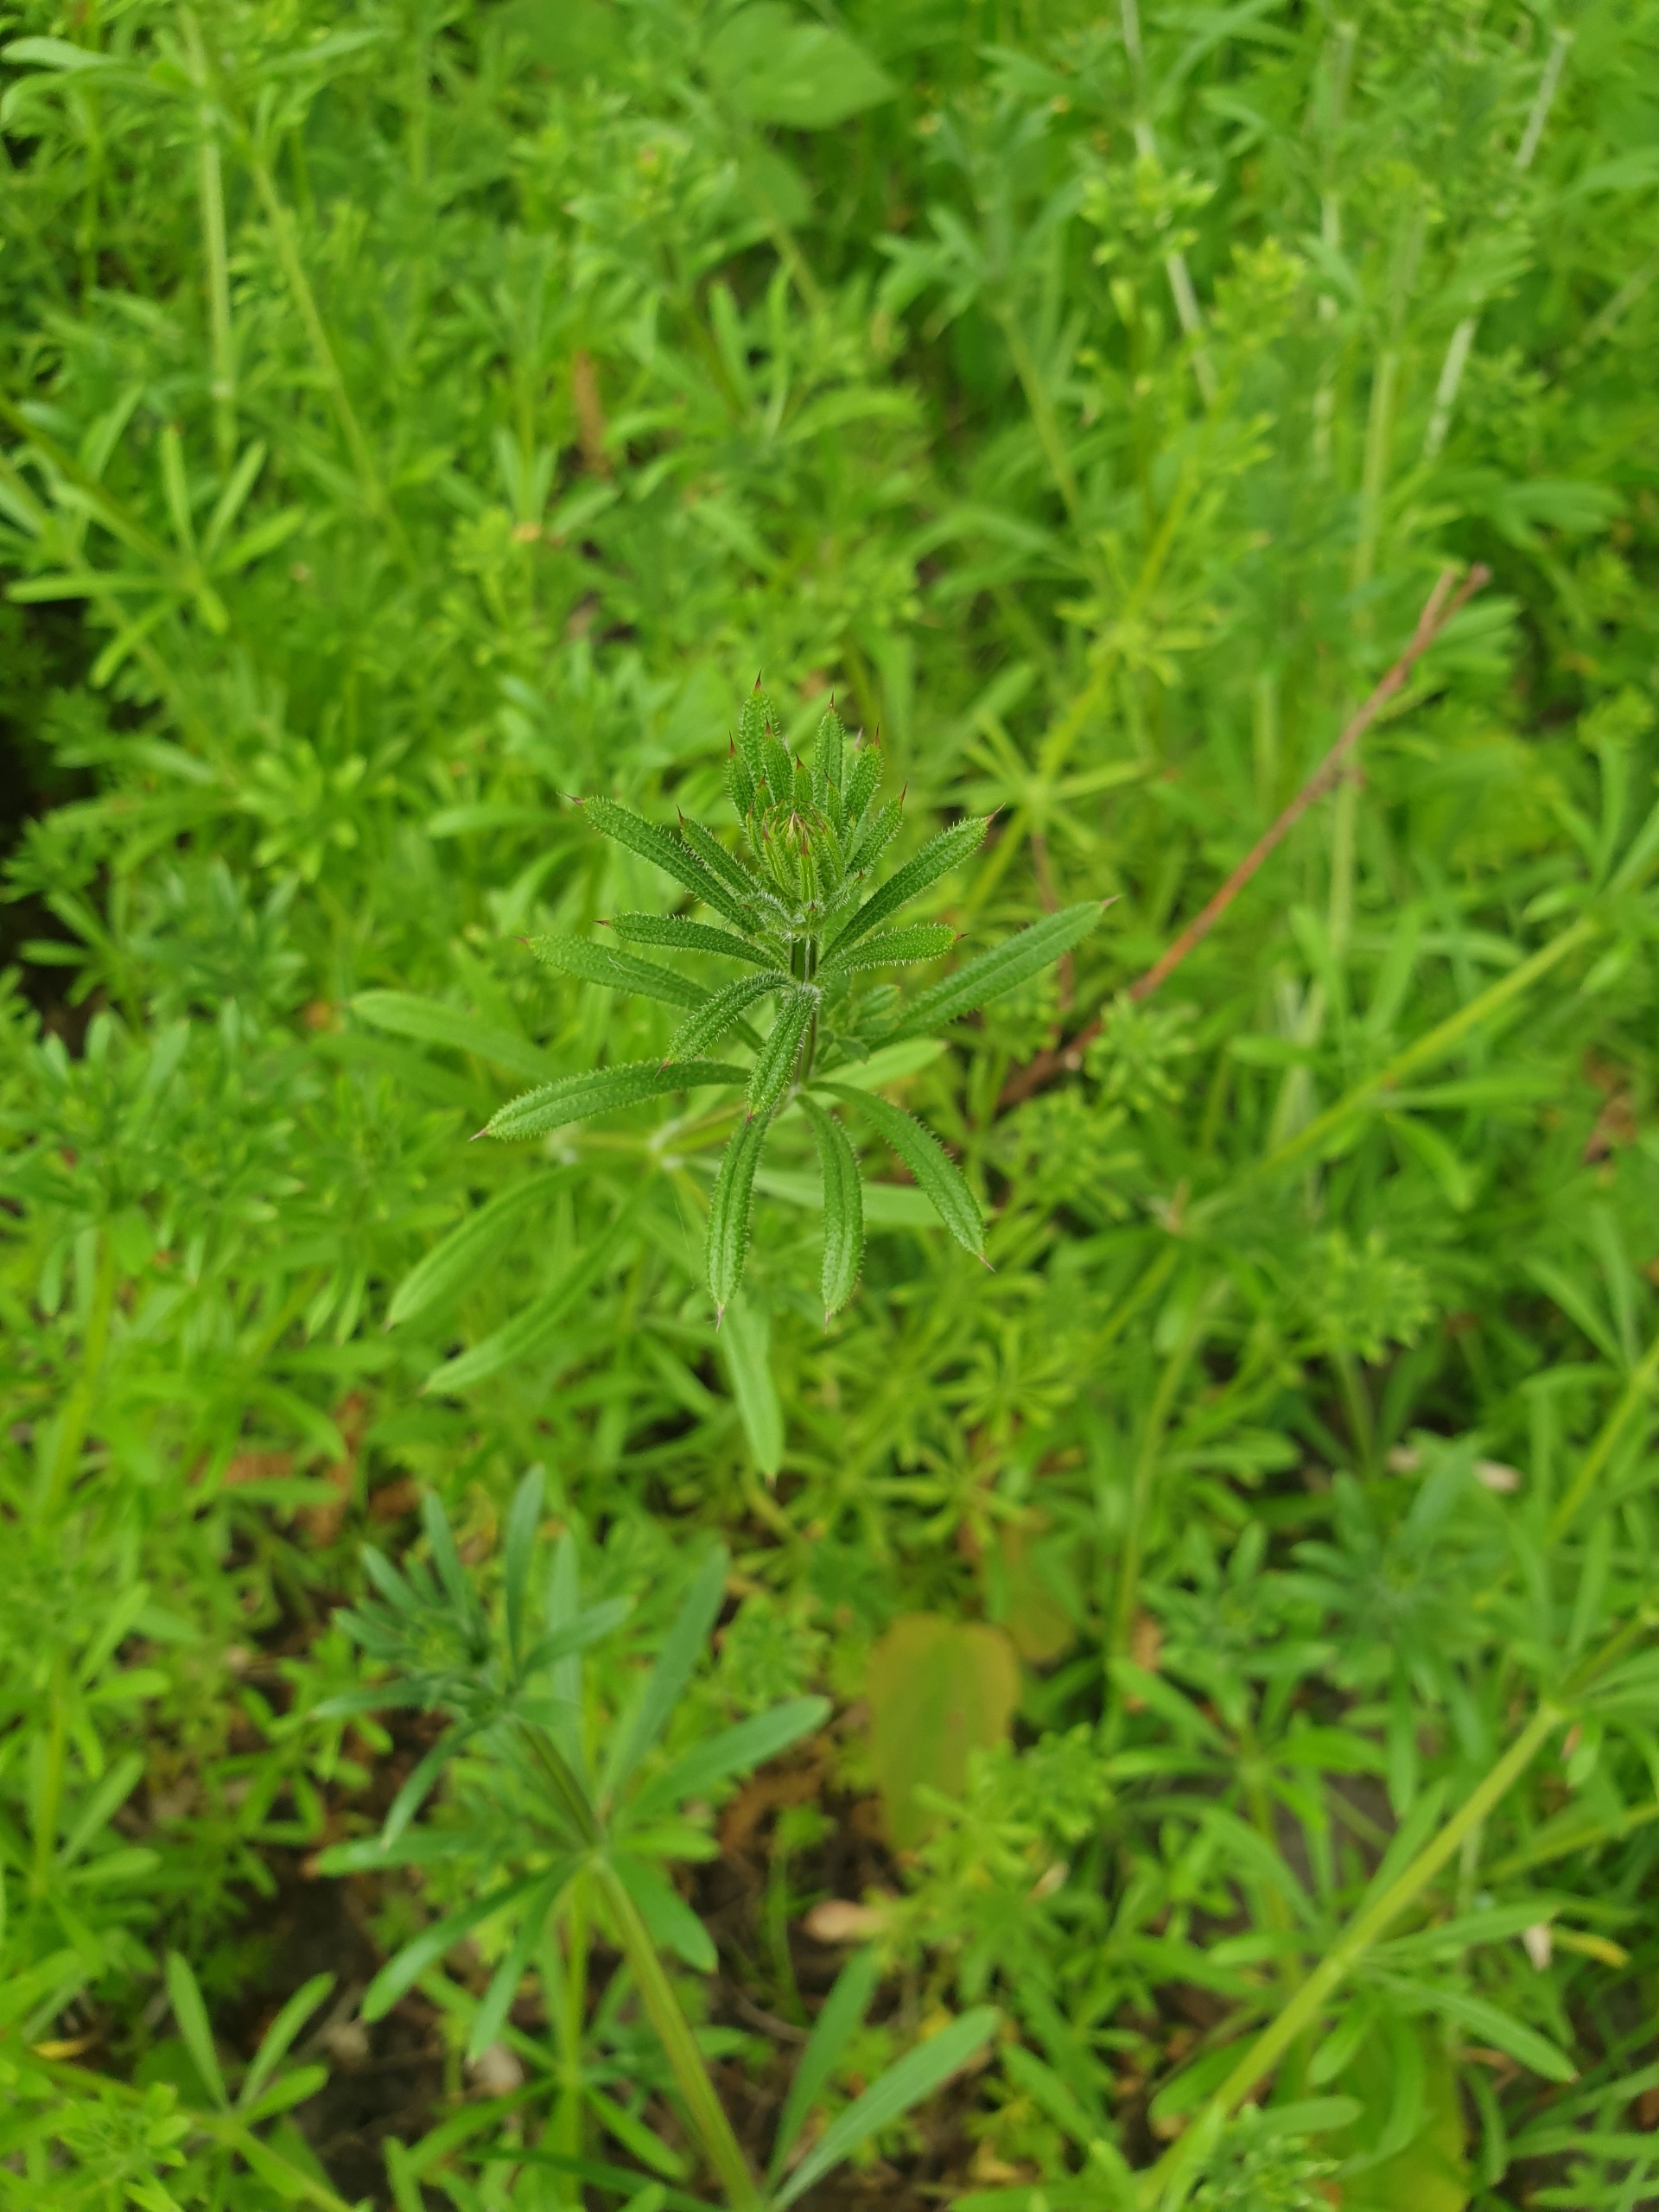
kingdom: Plantae
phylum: Tracheophyta
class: Magnoliopsida
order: Gentianales
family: Rubiaceae
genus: Galium
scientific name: Galium aparine
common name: Burre-snerre
